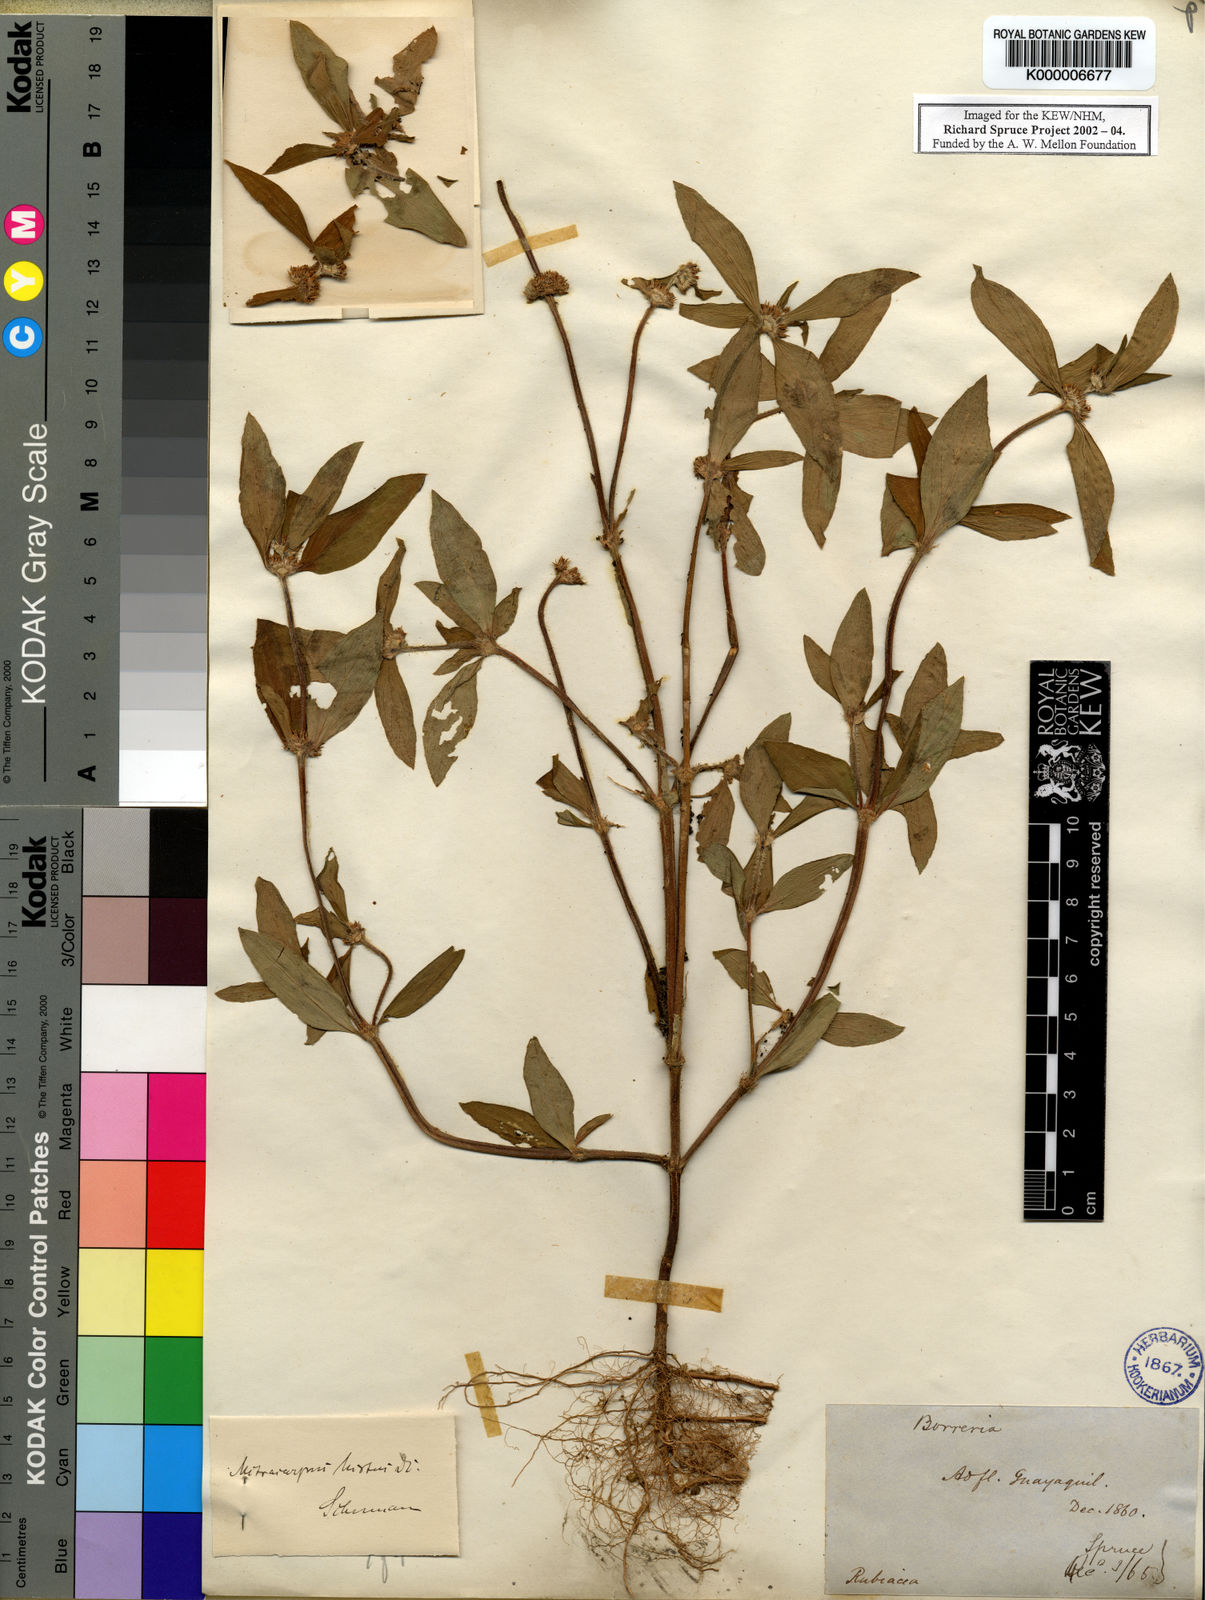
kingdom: Plantae
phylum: Tracheophyta
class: Magnoliopsida
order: Gentianales
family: Rubiaceae
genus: Mitracarpus
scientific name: Mitracarpus hirtus
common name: Tropical girdlepod
